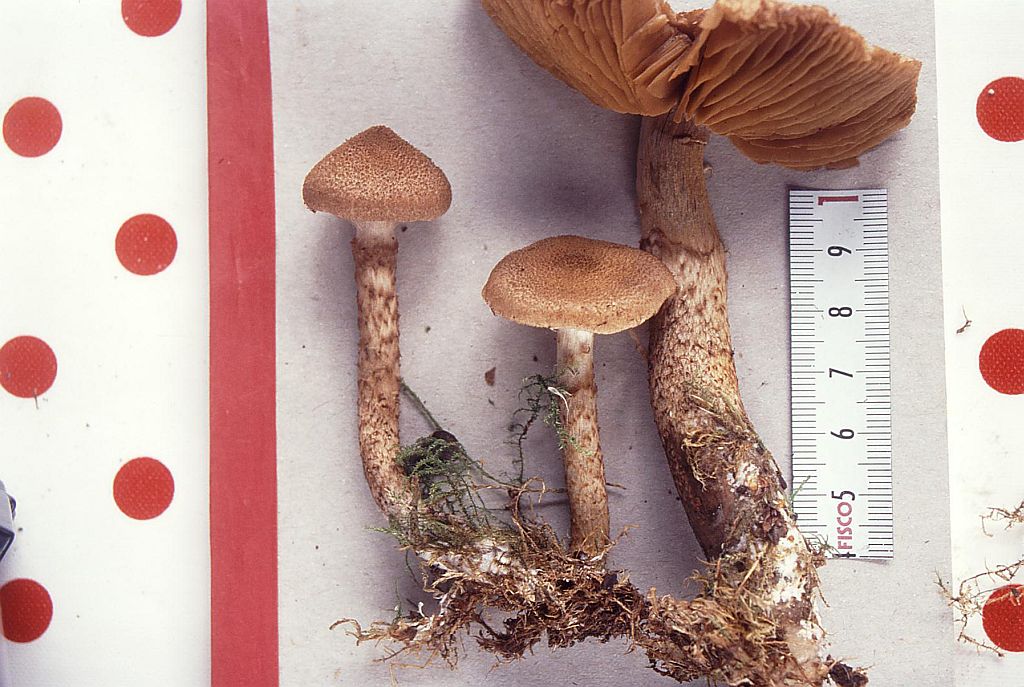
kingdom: Fungi
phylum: Basidiomycota
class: Agaricomycetes
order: Agaricales
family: Cortinariaceae
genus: Cortinarius
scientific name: Cortinarius pholideus
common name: brunskællet slørhat
